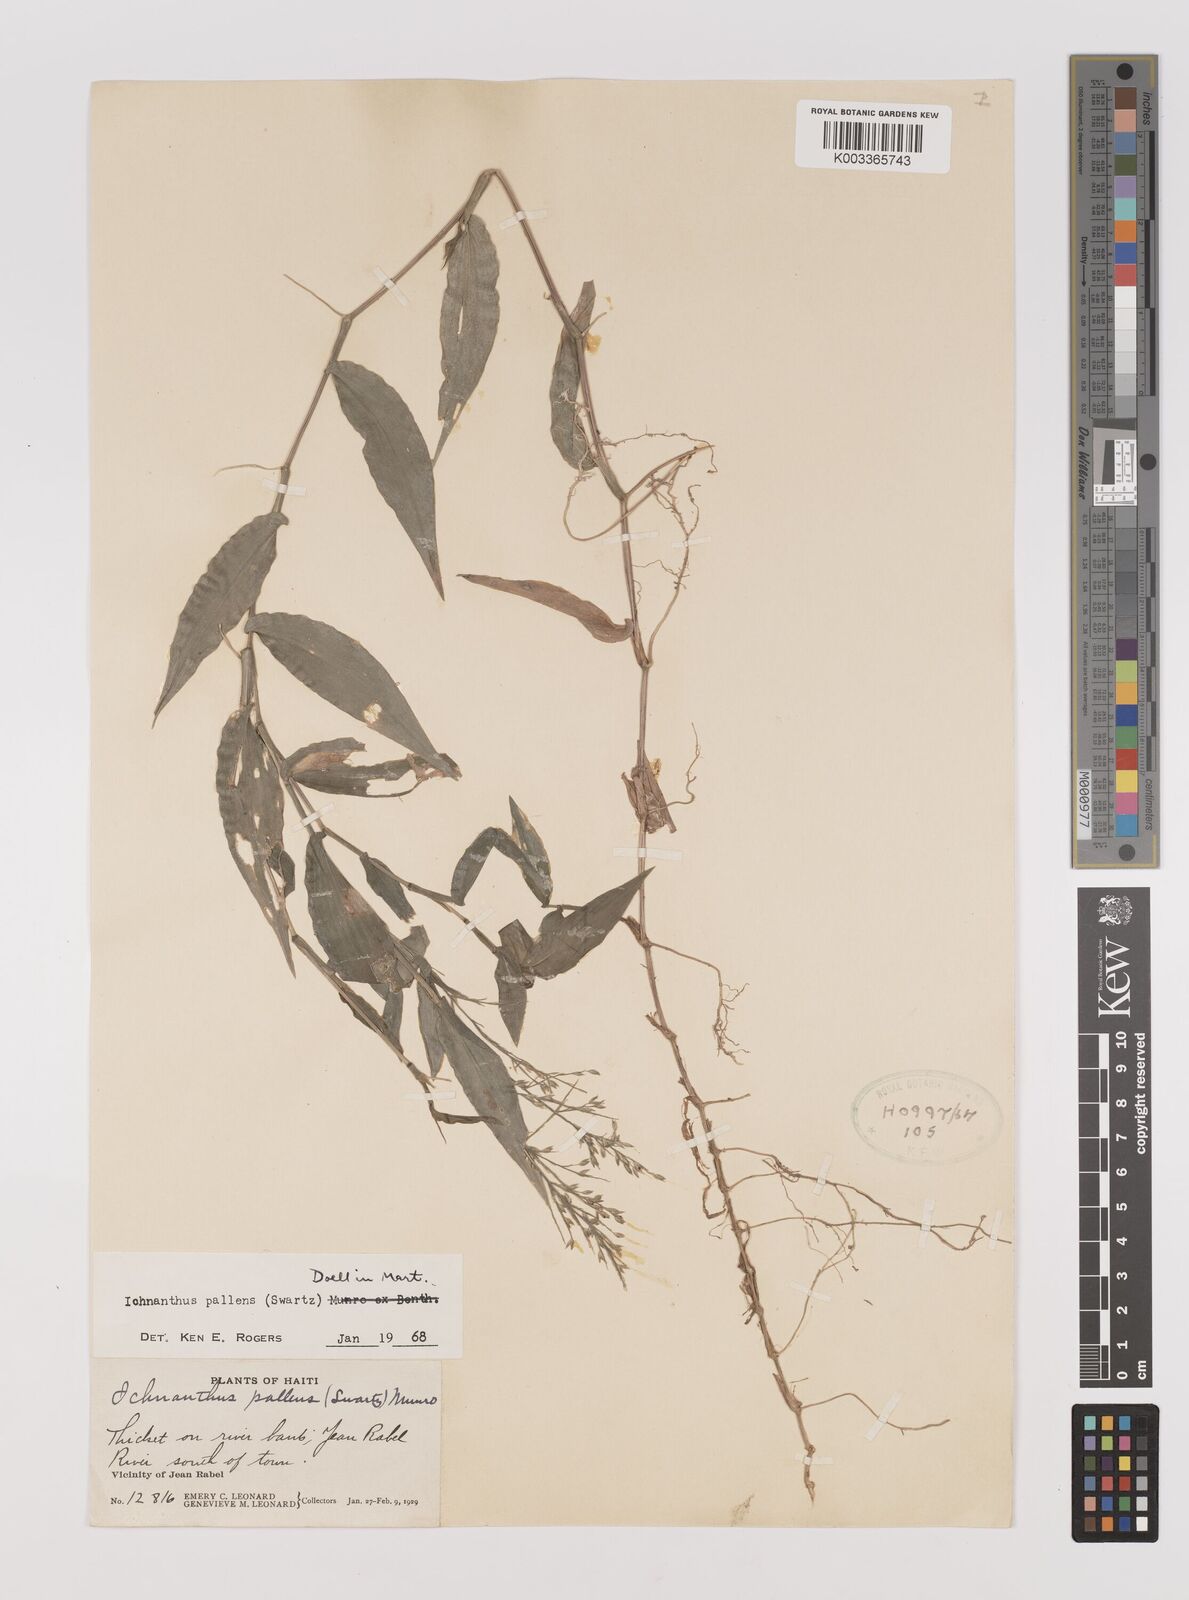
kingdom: Plantae
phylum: Tracheophyta
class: Liliopsida
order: Poales
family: Poaceae
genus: Ichnanthus
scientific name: Ichnanthus pallens
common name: Water grass
